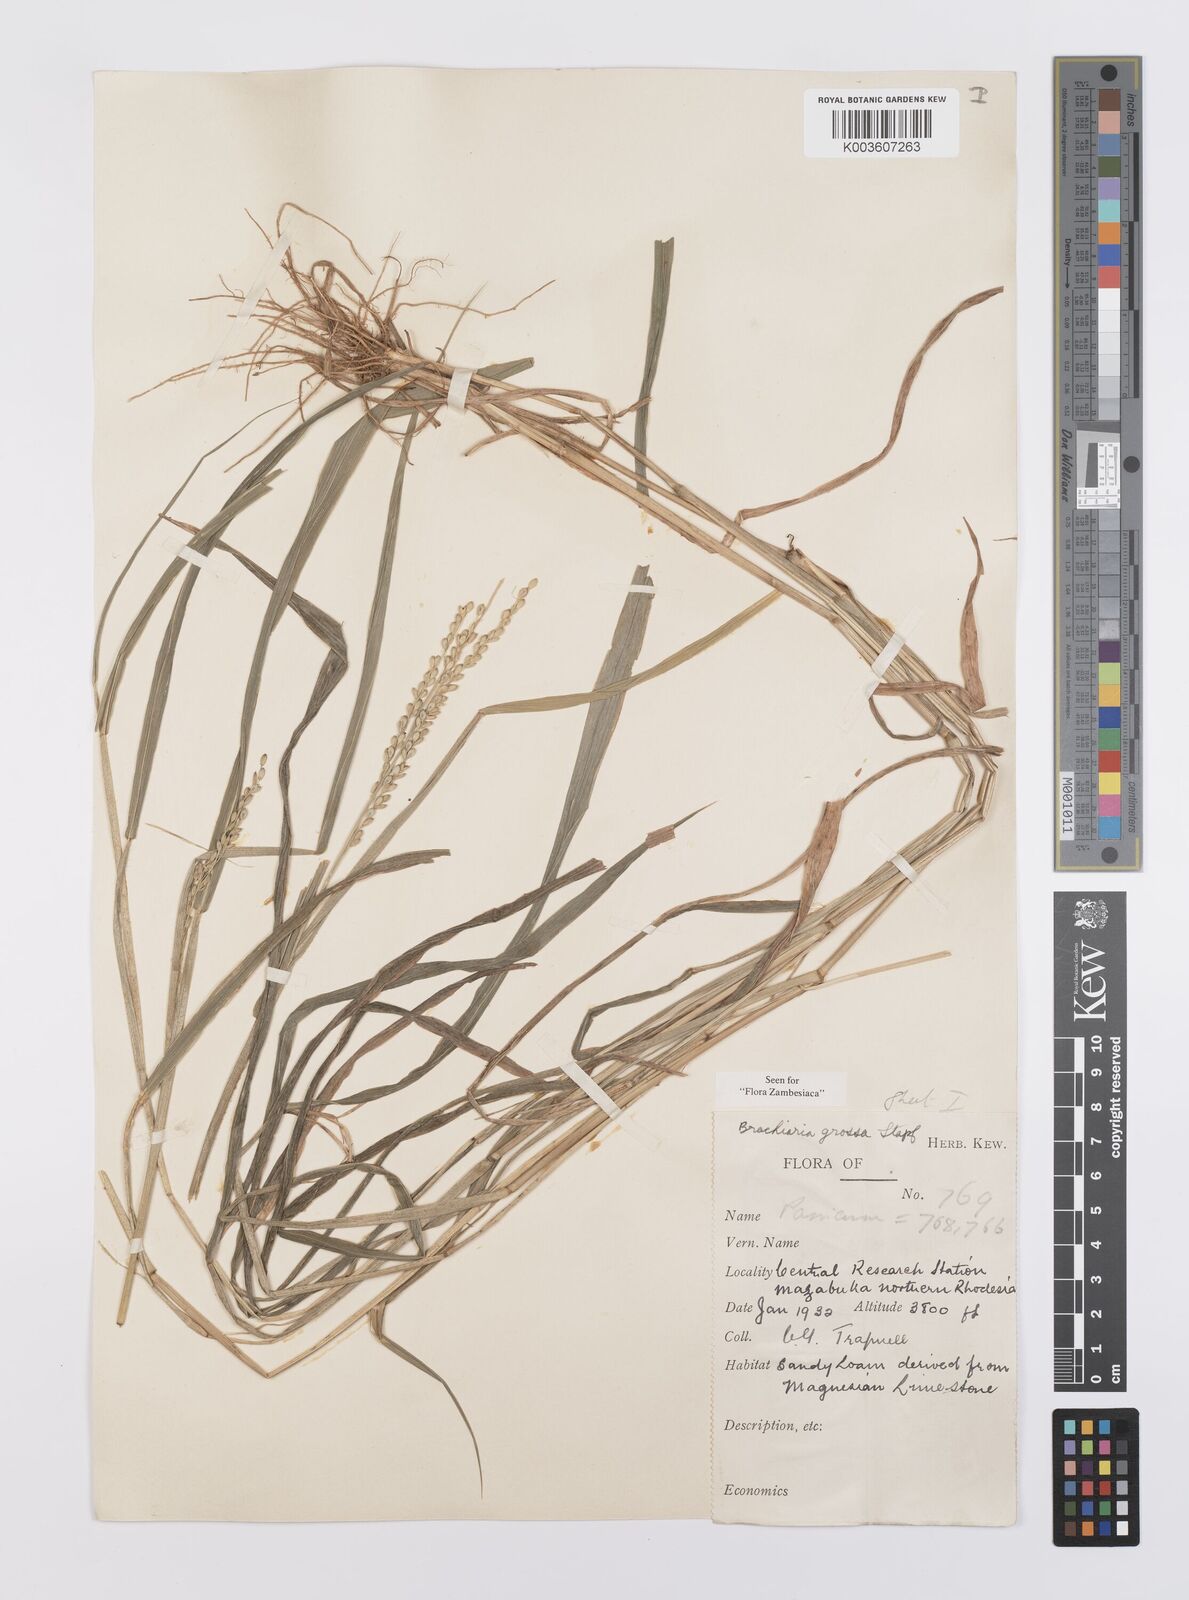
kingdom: Plantae
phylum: Tracheophyta
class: Liliopsida
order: Poales
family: Poaceae
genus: Urochloa
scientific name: Urochloa Brachiaria grossa
